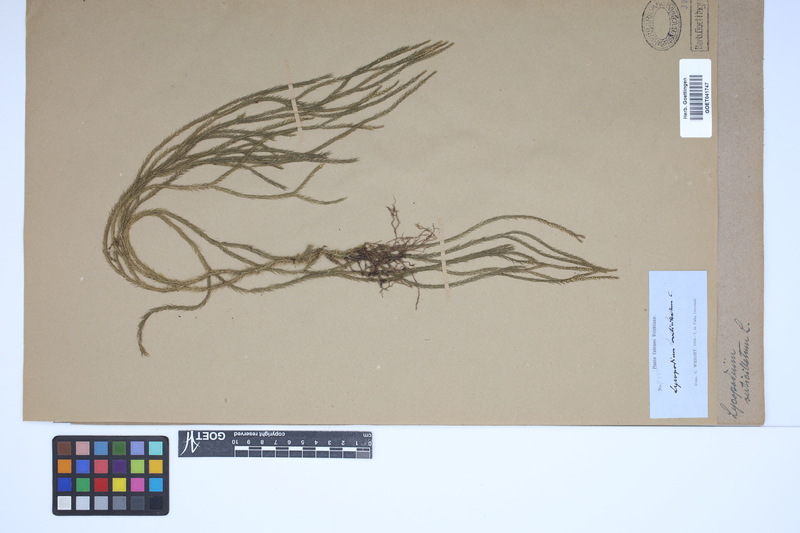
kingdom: Plantae
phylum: Tracheophyta
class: Lycopodiopsida
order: Lycopodiales
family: Lycopodiaceae
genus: Phlegmariurus
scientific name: Phlegmariurus verticillatus
